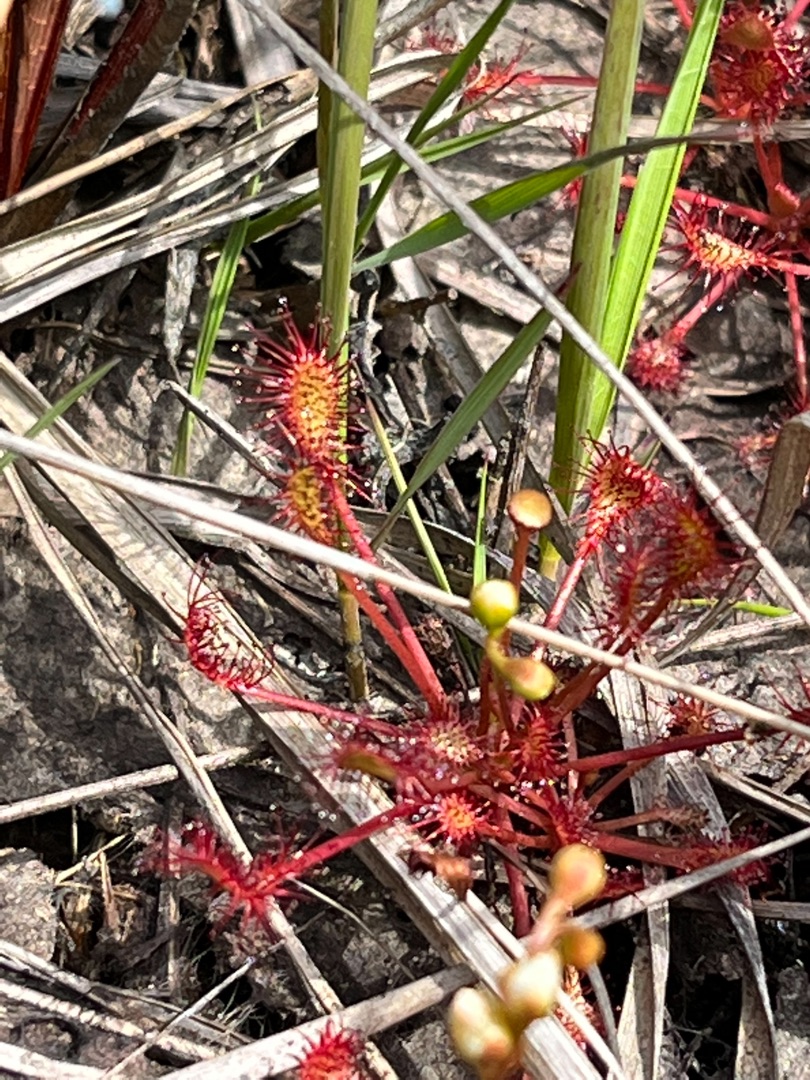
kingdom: Plantae
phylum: Tracheophyta
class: Magnoliopsida
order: Caryophyllales
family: Droseraceae
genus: Drosera
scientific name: Drosera intermedia
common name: Liden soldug
